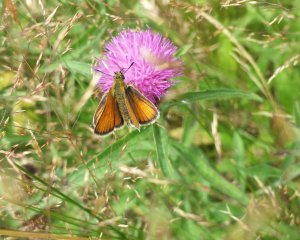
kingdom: Animalia
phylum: Arthropoda
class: Insecta
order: Lepidoptera
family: Hesperiidae
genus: Thymelicus
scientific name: Thymelicus lineola
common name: European Skipper
